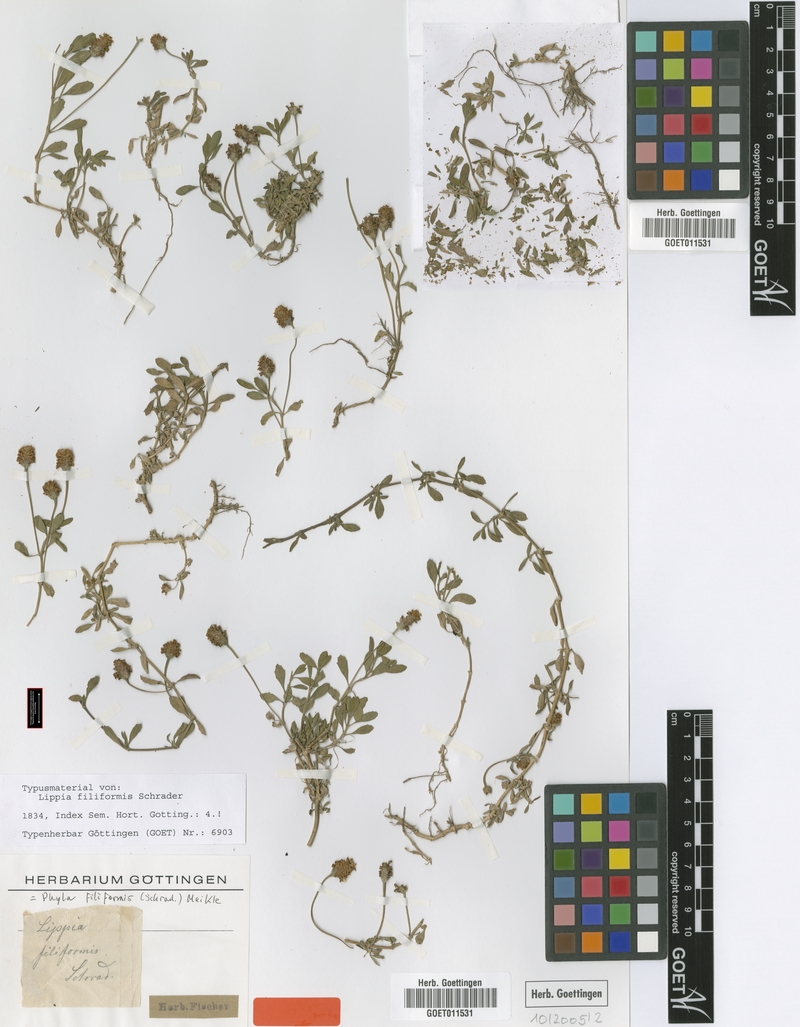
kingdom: Plantae
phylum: Tracheophyta
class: Magnoliopsida
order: Lamiales
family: Verbenaceae
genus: Phyla
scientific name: Phyla nodiflora
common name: Frogfruit
